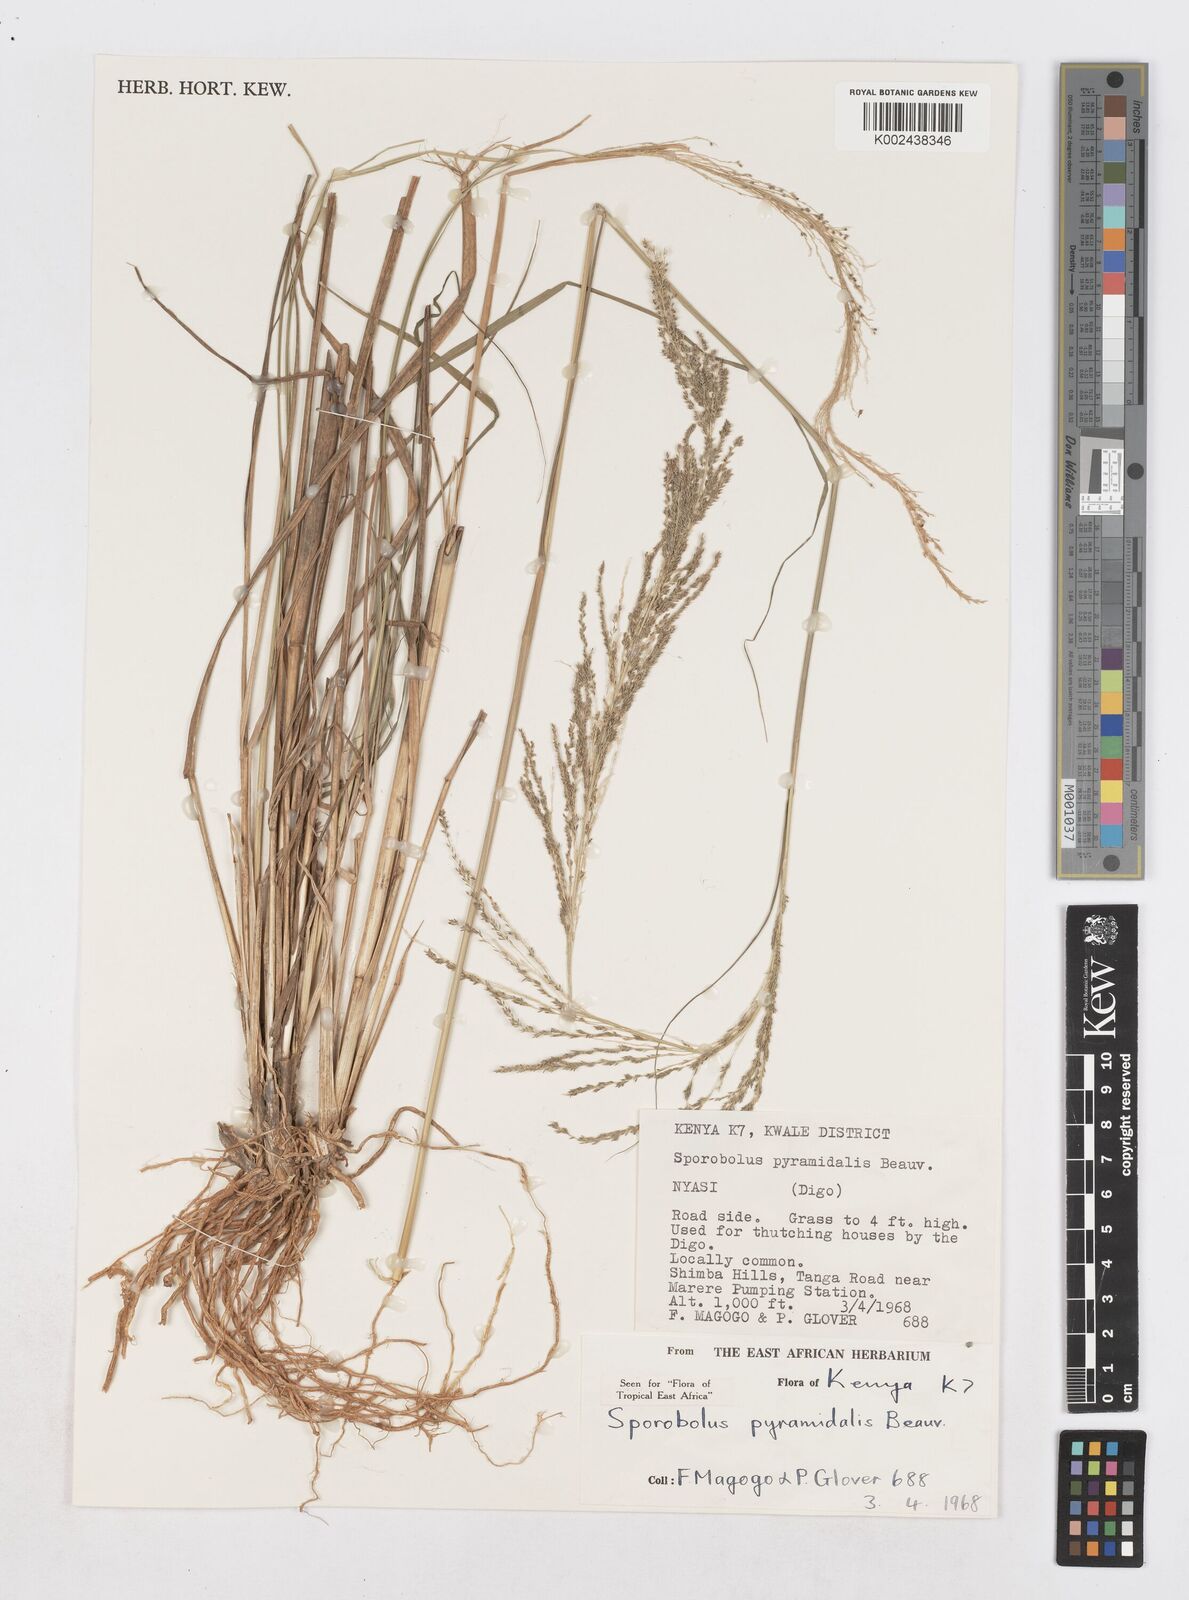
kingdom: Plantae
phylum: Tracheophyta
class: Liliopsida
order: Poales
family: Poaceae
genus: Sporobolus
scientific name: Sporobolus pyramidalis
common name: West indian dropseed
